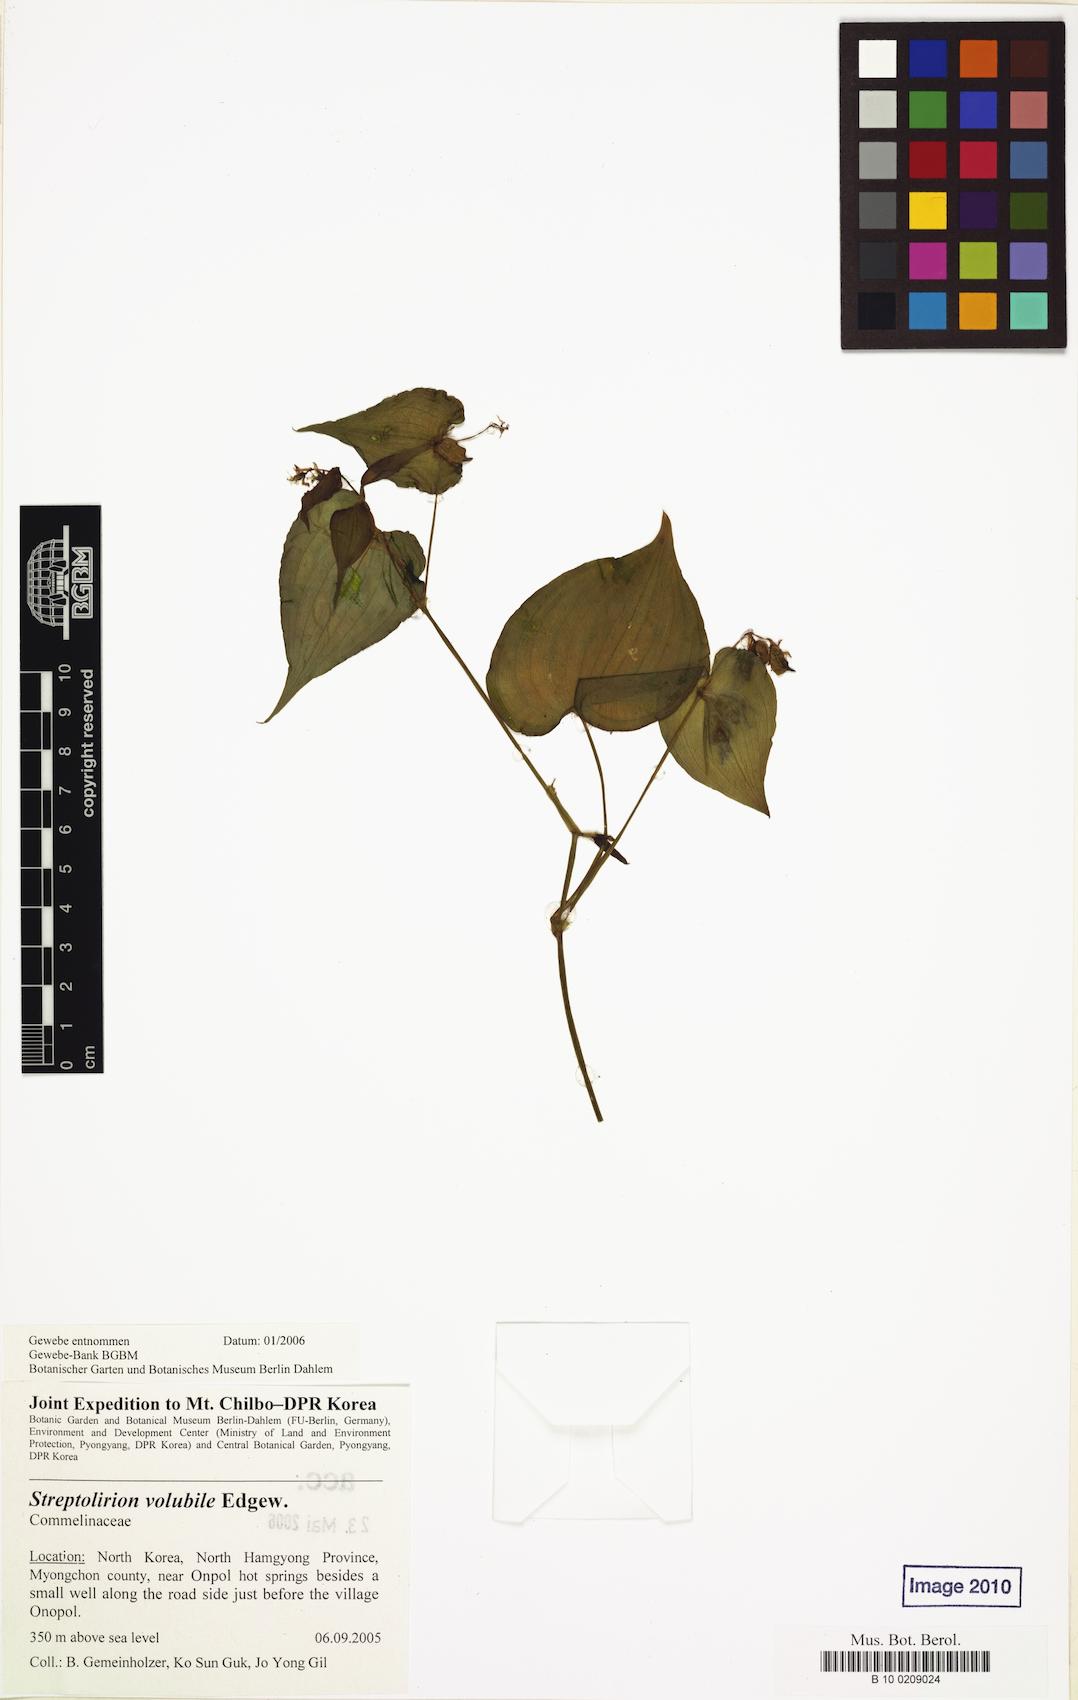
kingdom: Plantae
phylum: Tracheophyta
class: Liliopsida
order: Commelinales
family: Commelinaceae
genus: Streptolirion
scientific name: Streptolirion volubile
